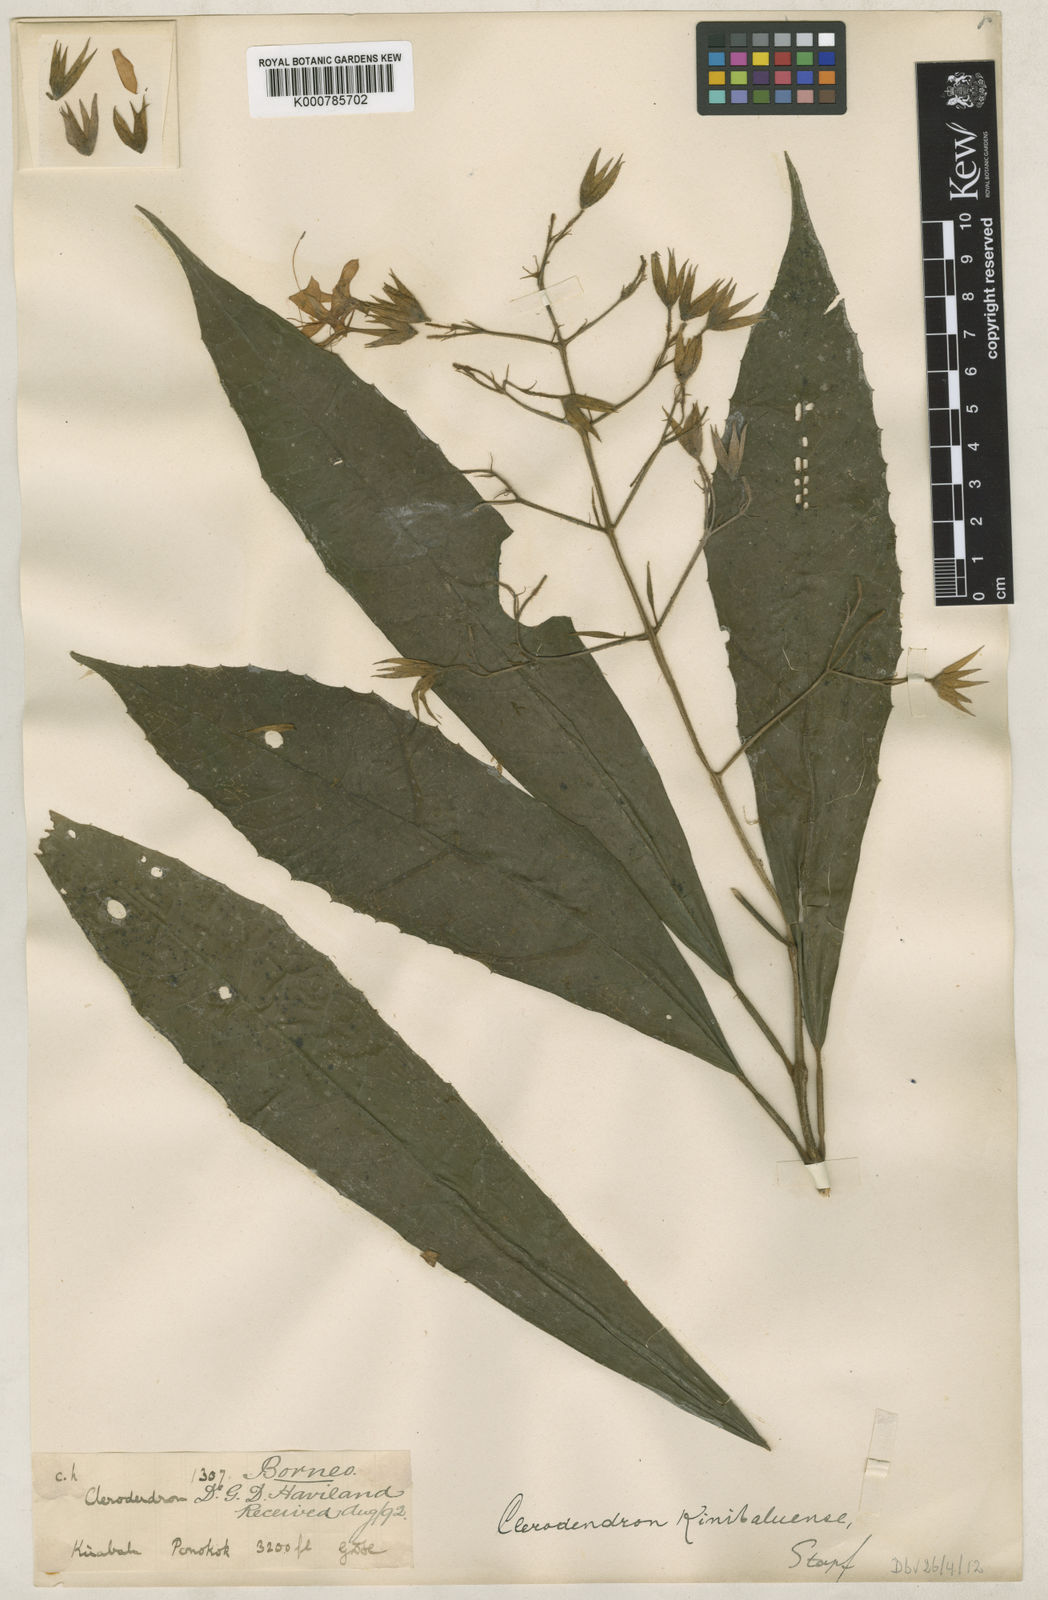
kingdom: Plantae
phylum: Tracheophyta
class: Magnoliopsida
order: Lamiales
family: Lamiaceae
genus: Clerodendrum
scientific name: Clerodendrum kinabaluense
